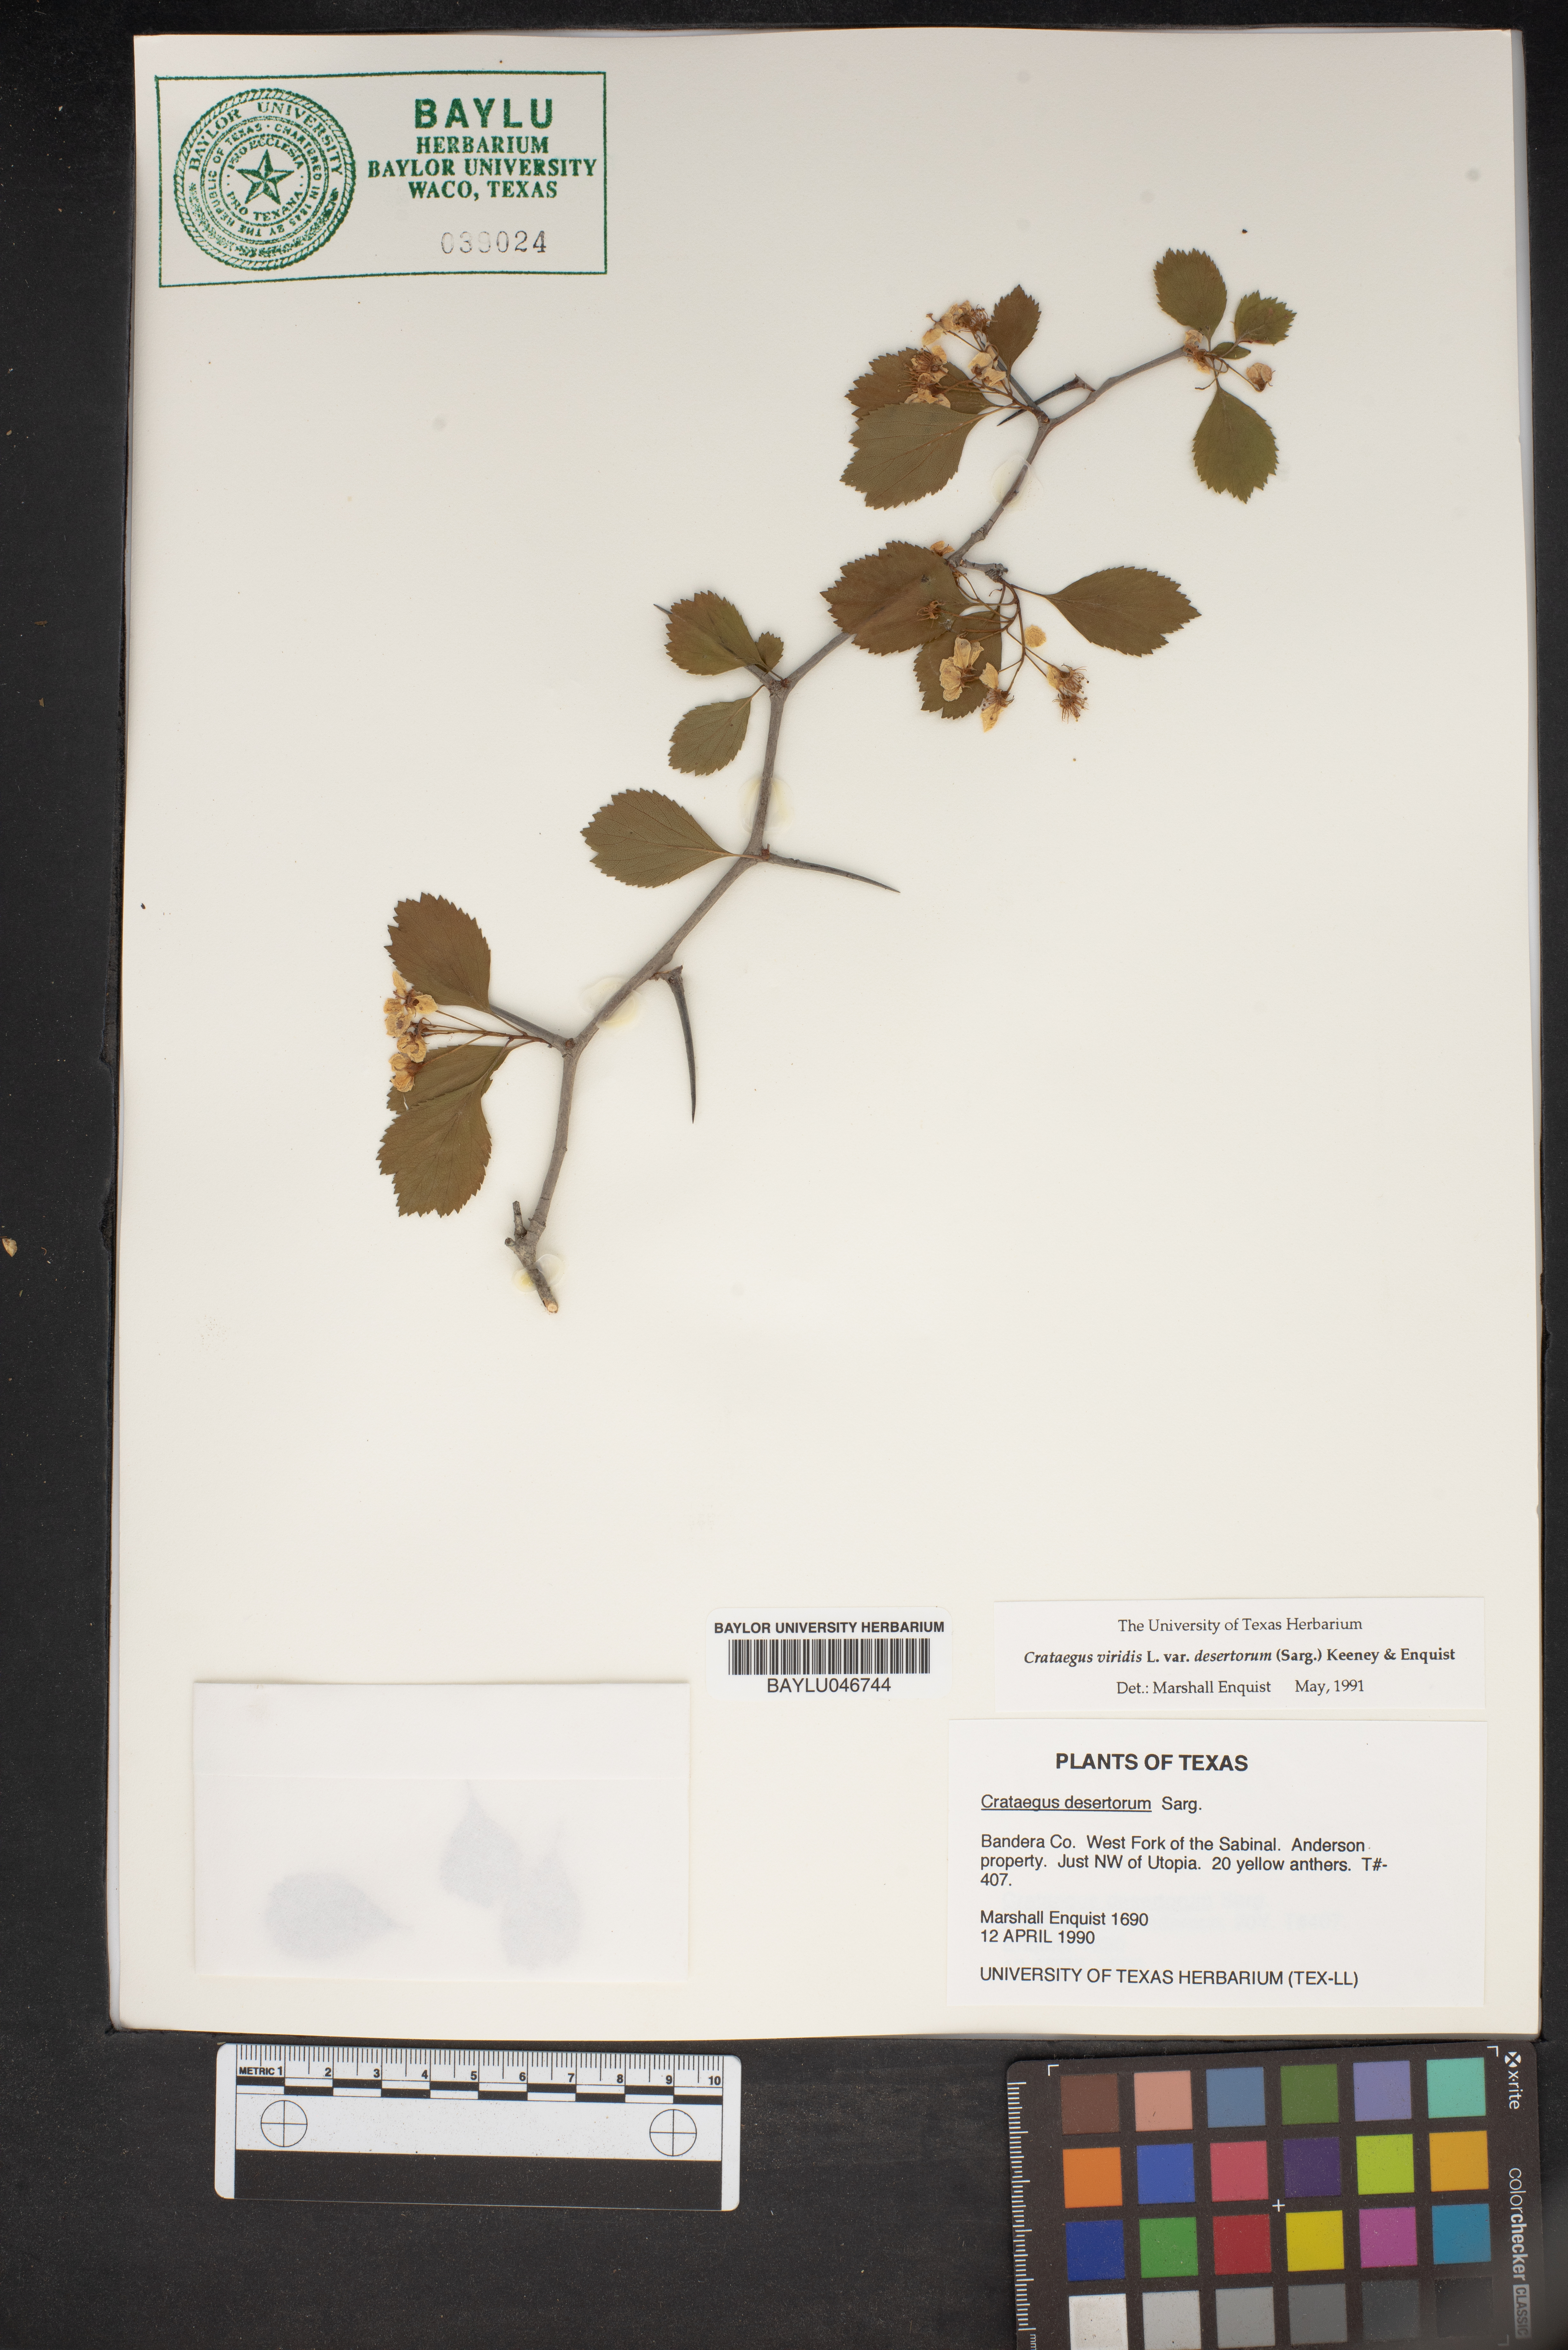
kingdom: Plantae
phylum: Tracheophyta
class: Magnoliopsida
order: Rosales
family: Rosaceae
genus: Crataegus
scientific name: Crataegus viridis
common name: Southernthorn
